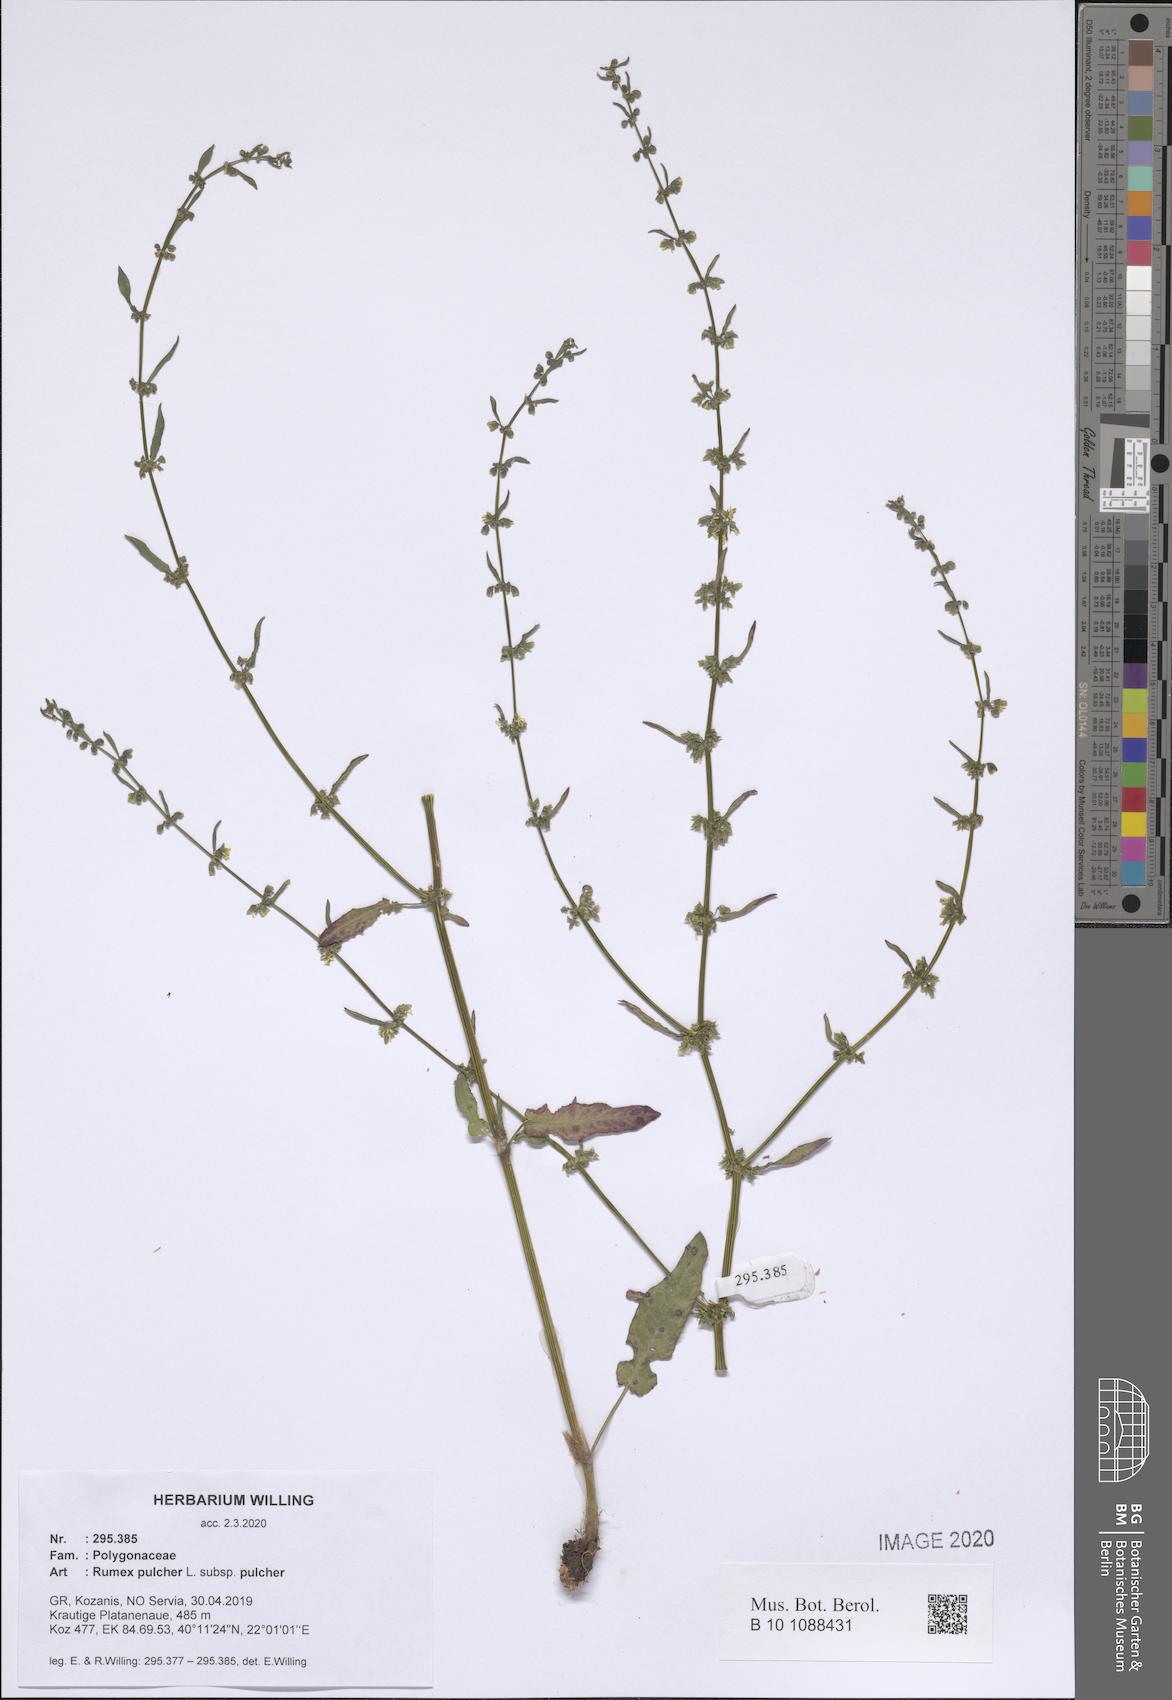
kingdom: Plantae
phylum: Tracheophyta
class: Magnoliopsida
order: Caryophyllales
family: Polygonaceae
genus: Rumex
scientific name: Rumex pulcher
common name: Fiddle dock
